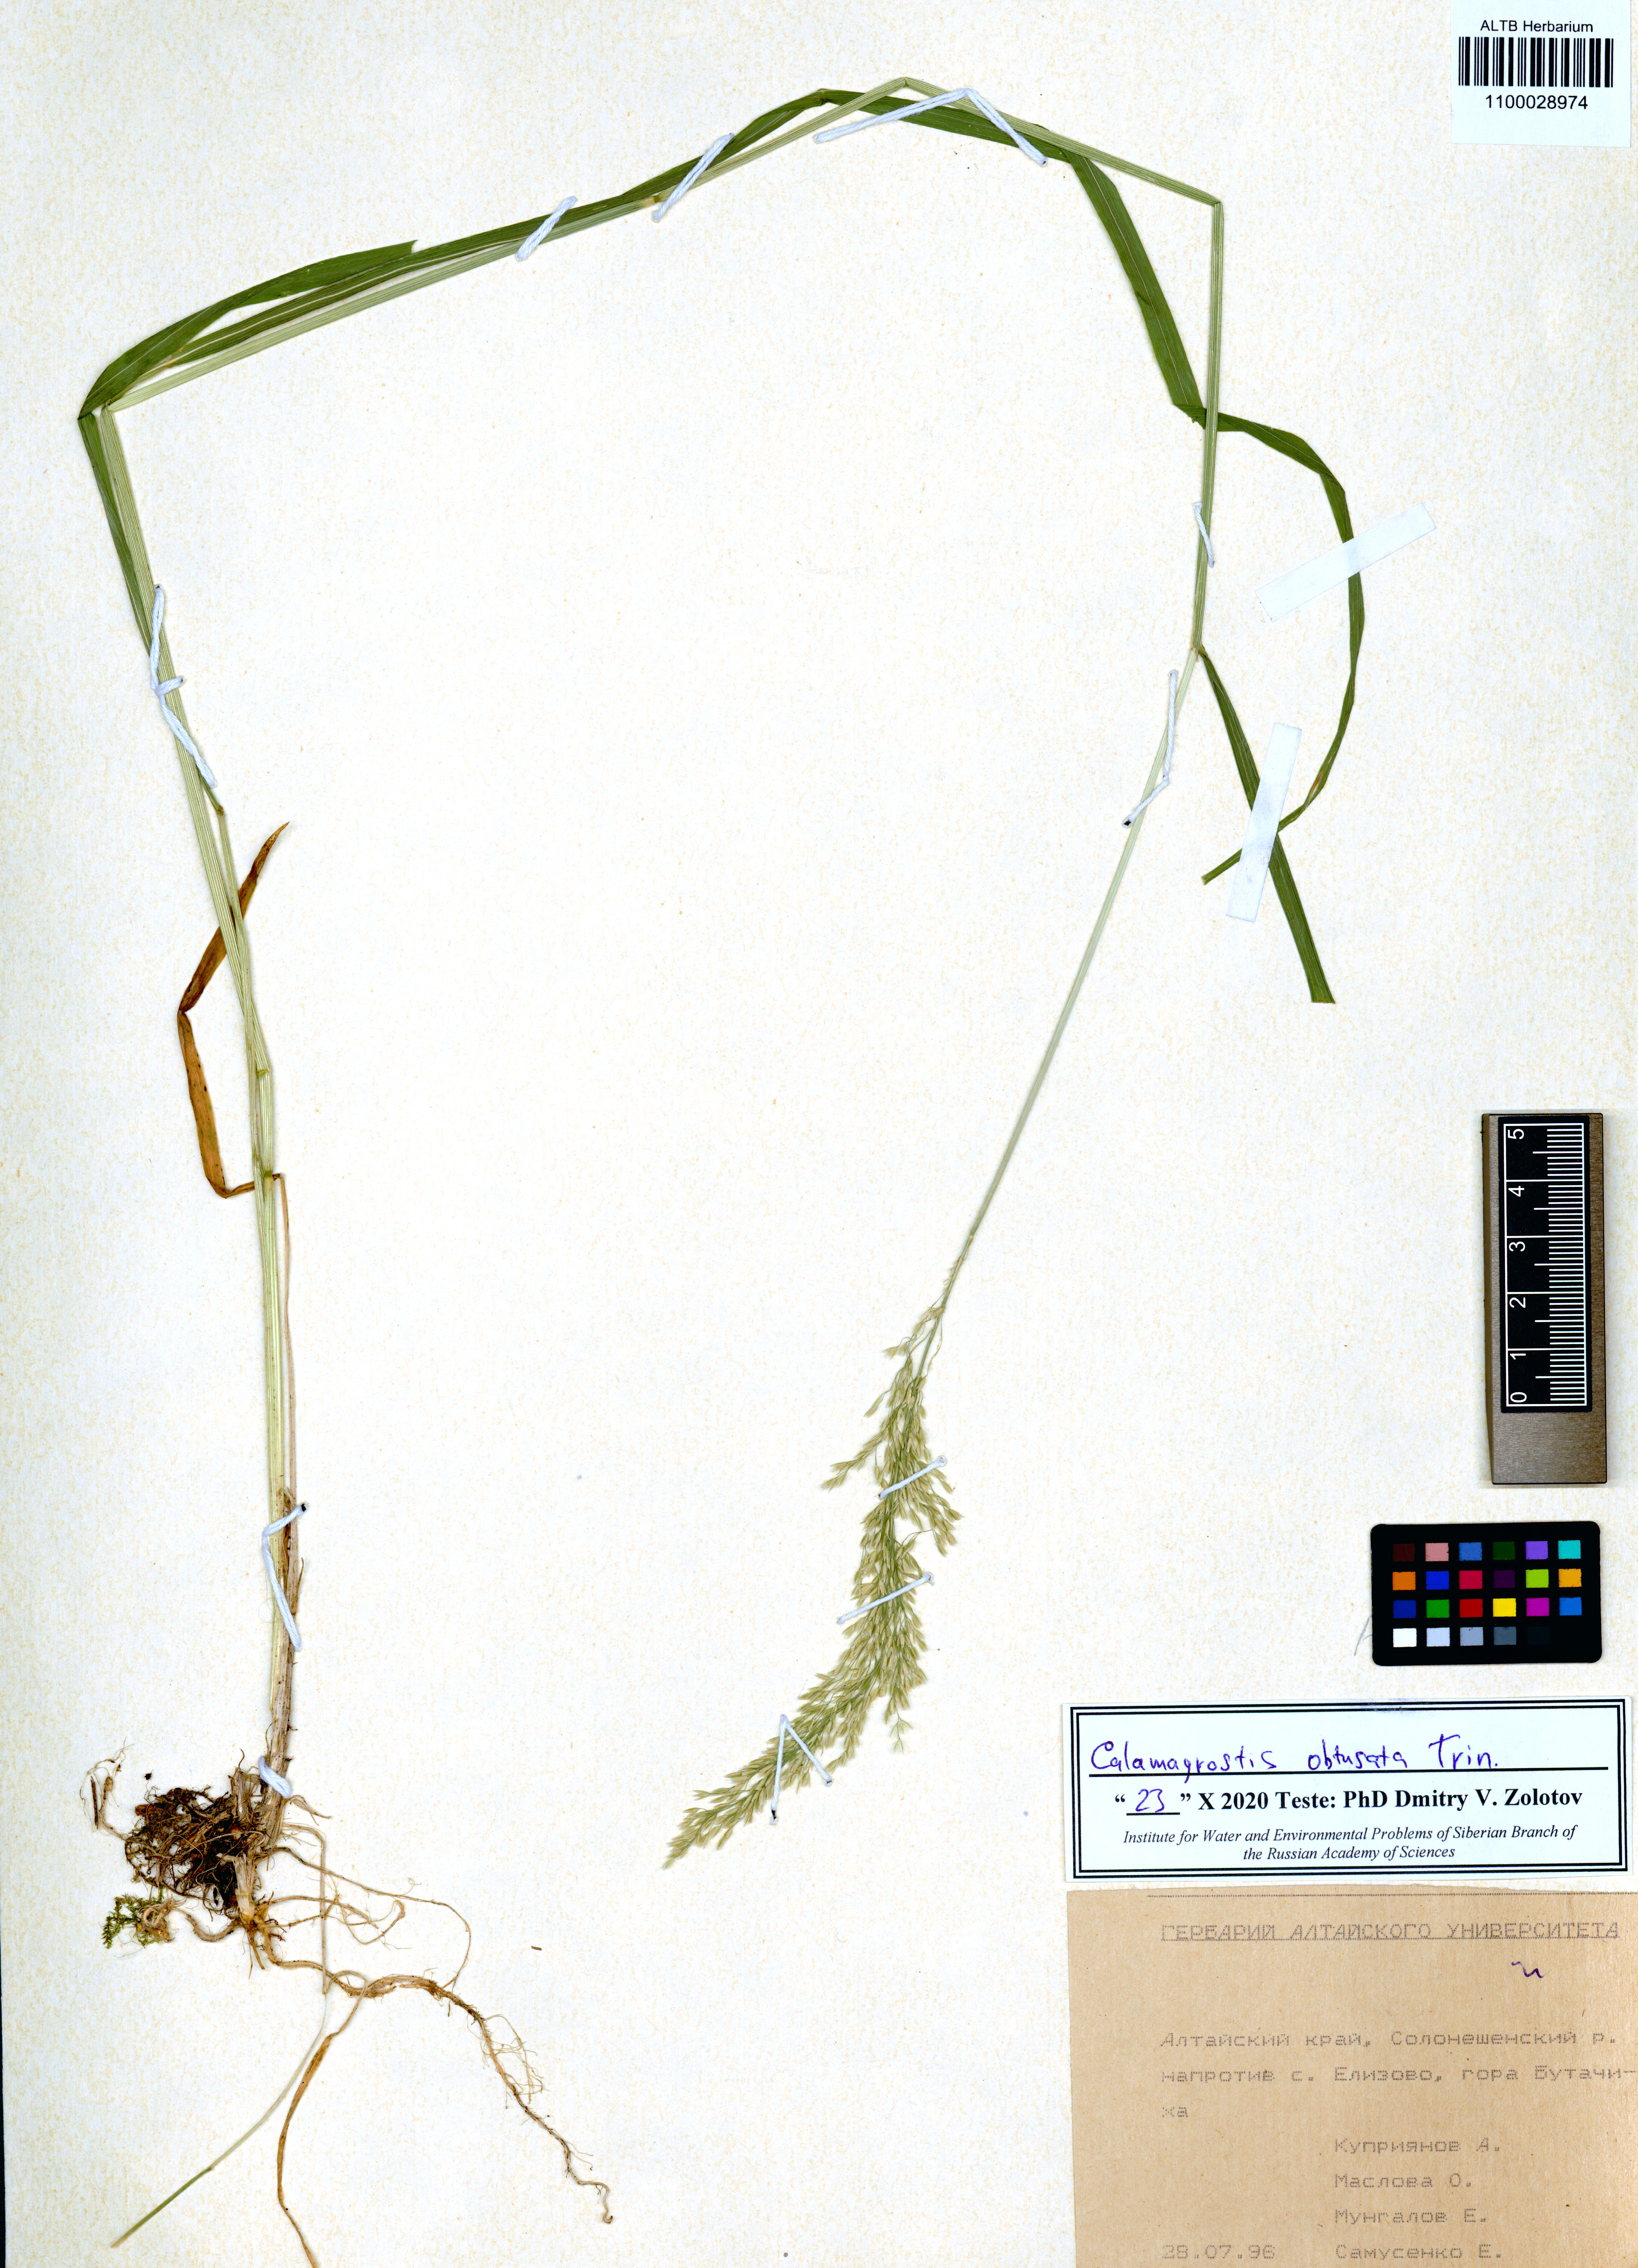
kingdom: Plantae
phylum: Tracheophyta
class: Liliopsida
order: Poales
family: Poaceae
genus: Calamagrostis
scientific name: Calamagrostis obtusata
